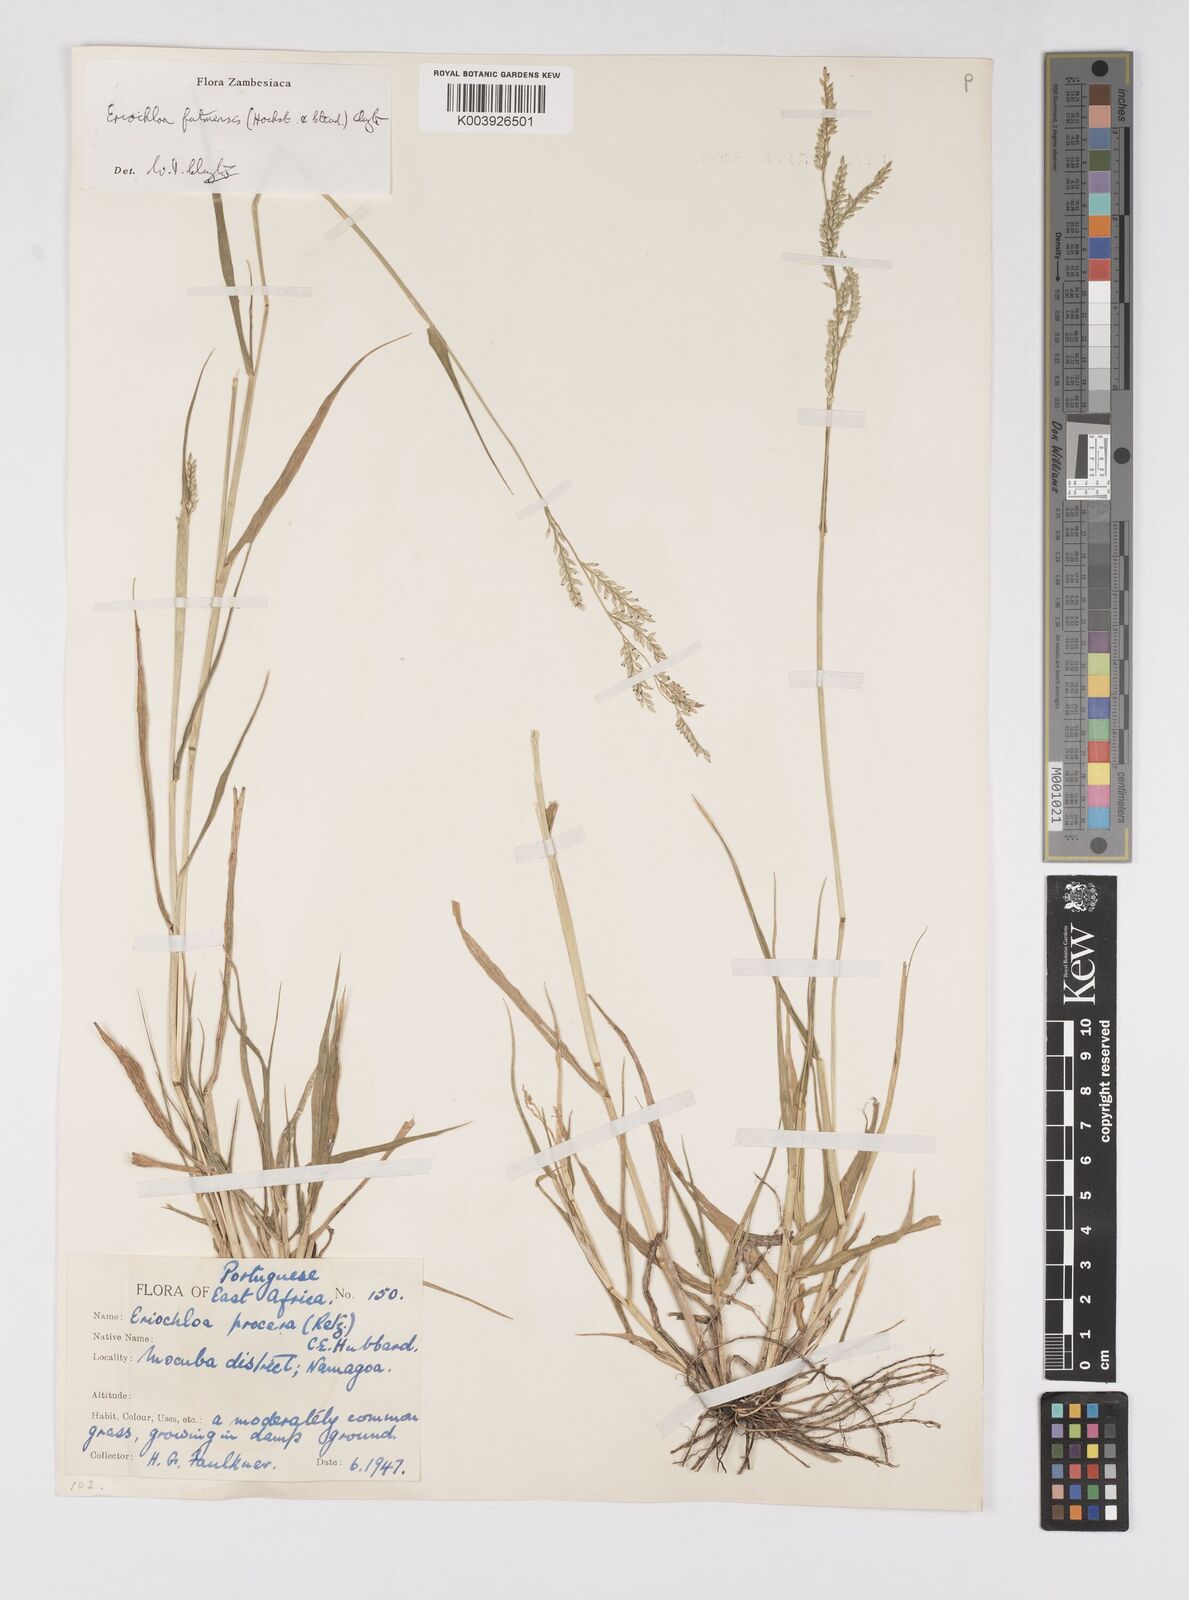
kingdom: Plantae
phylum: Tracheophyta
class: Liliopsida
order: Poales
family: Poaceae
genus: Eriochloa
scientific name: Eriochloa barbatus
